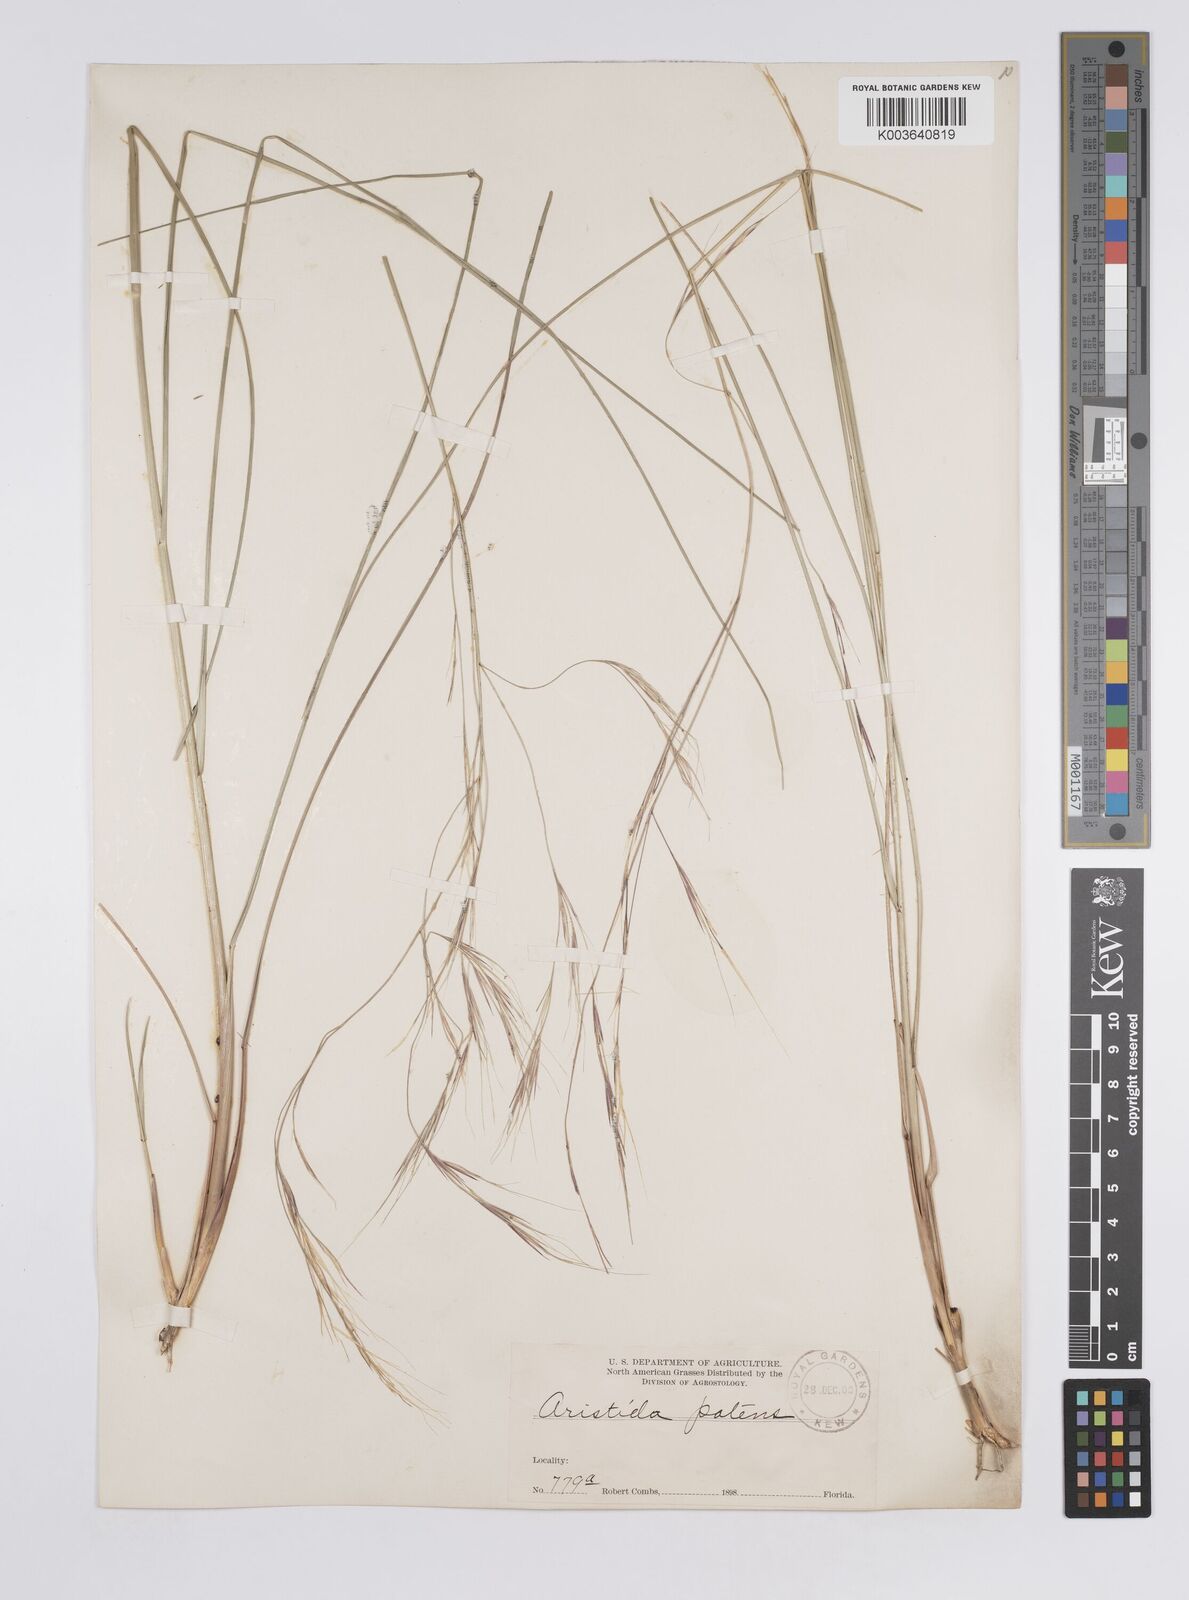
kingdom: Plantae
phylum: Tracheophyta
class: Liliopsida
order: Poales
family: Poaceae
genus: Aristida
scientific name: Aristida patula
